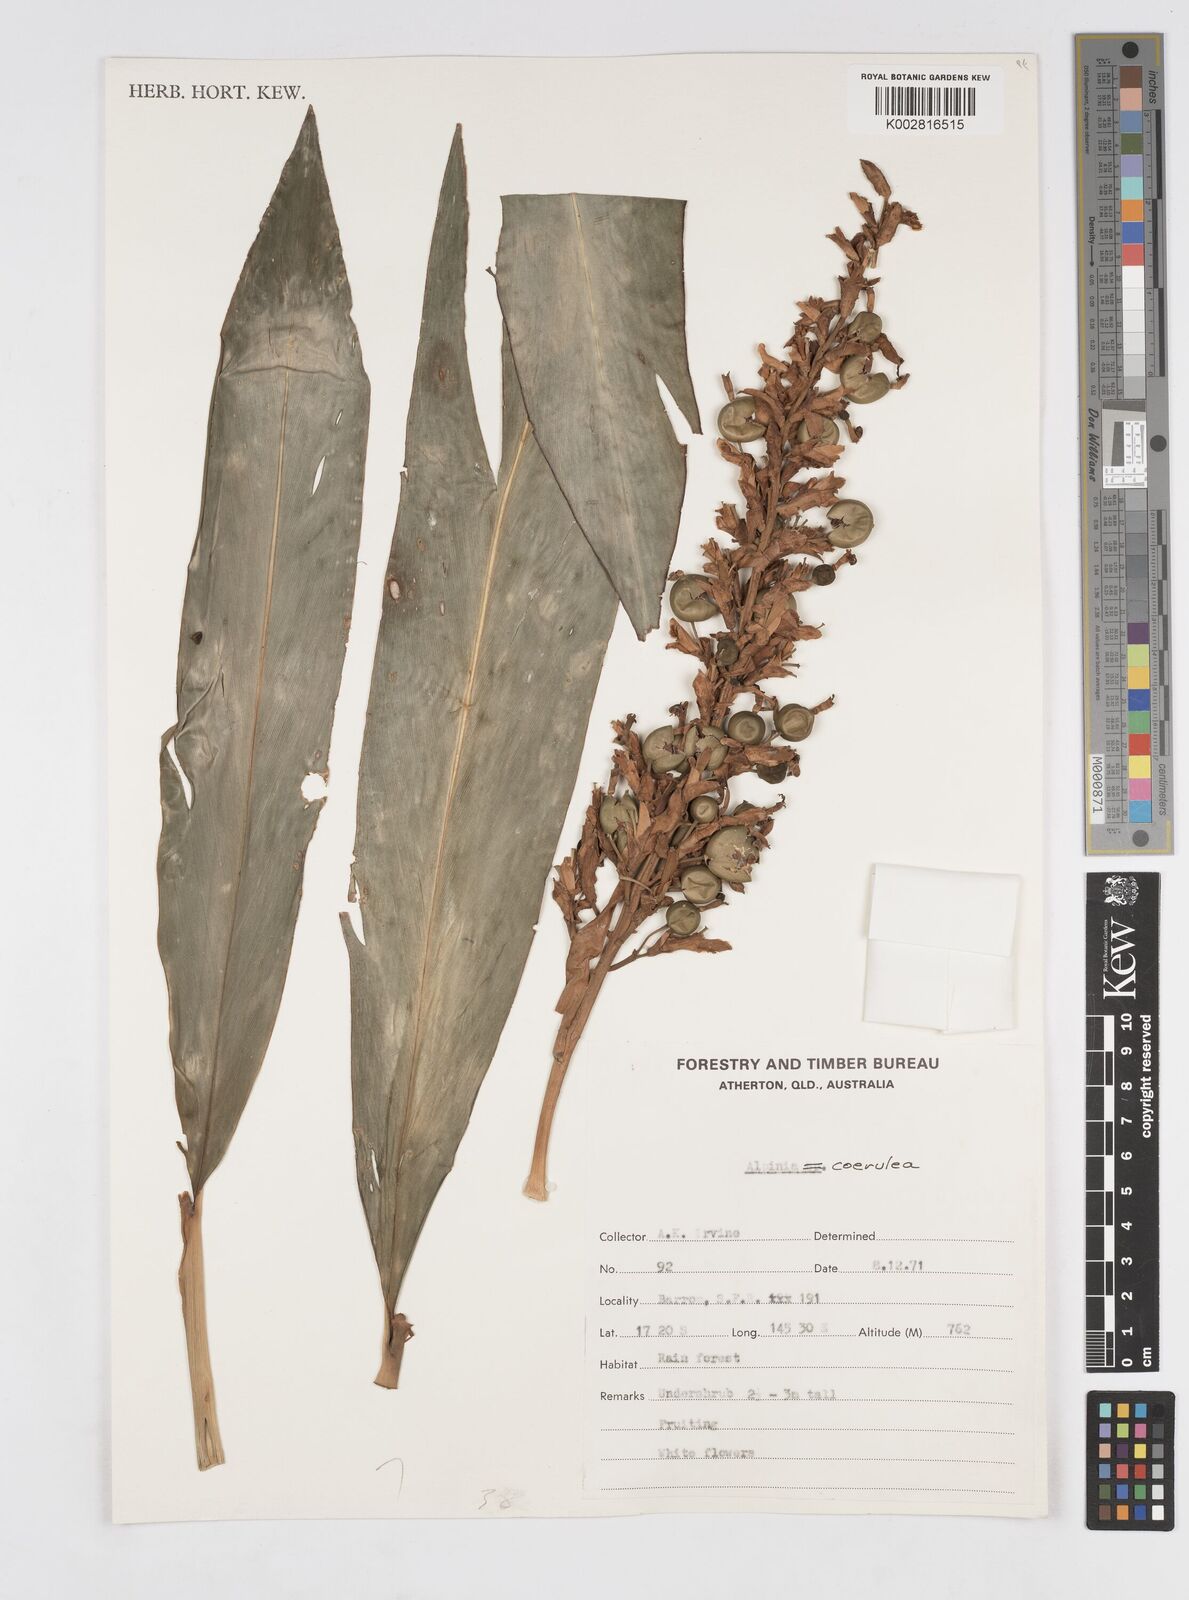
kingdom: Plantae
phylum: Tracheophyta
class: Liliopsida
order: Zingiberales
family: Zingiberaceae
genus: Alpinia
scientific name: Alpinia
